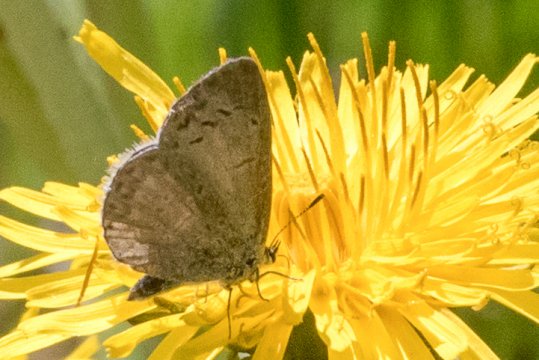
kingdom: Animalia
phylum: Arthropoda
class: Insecta
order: Lepidoptera
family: Lycaenidae
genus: Celastrina
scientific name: Celastrina lucia
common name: Northern Spring Azure
